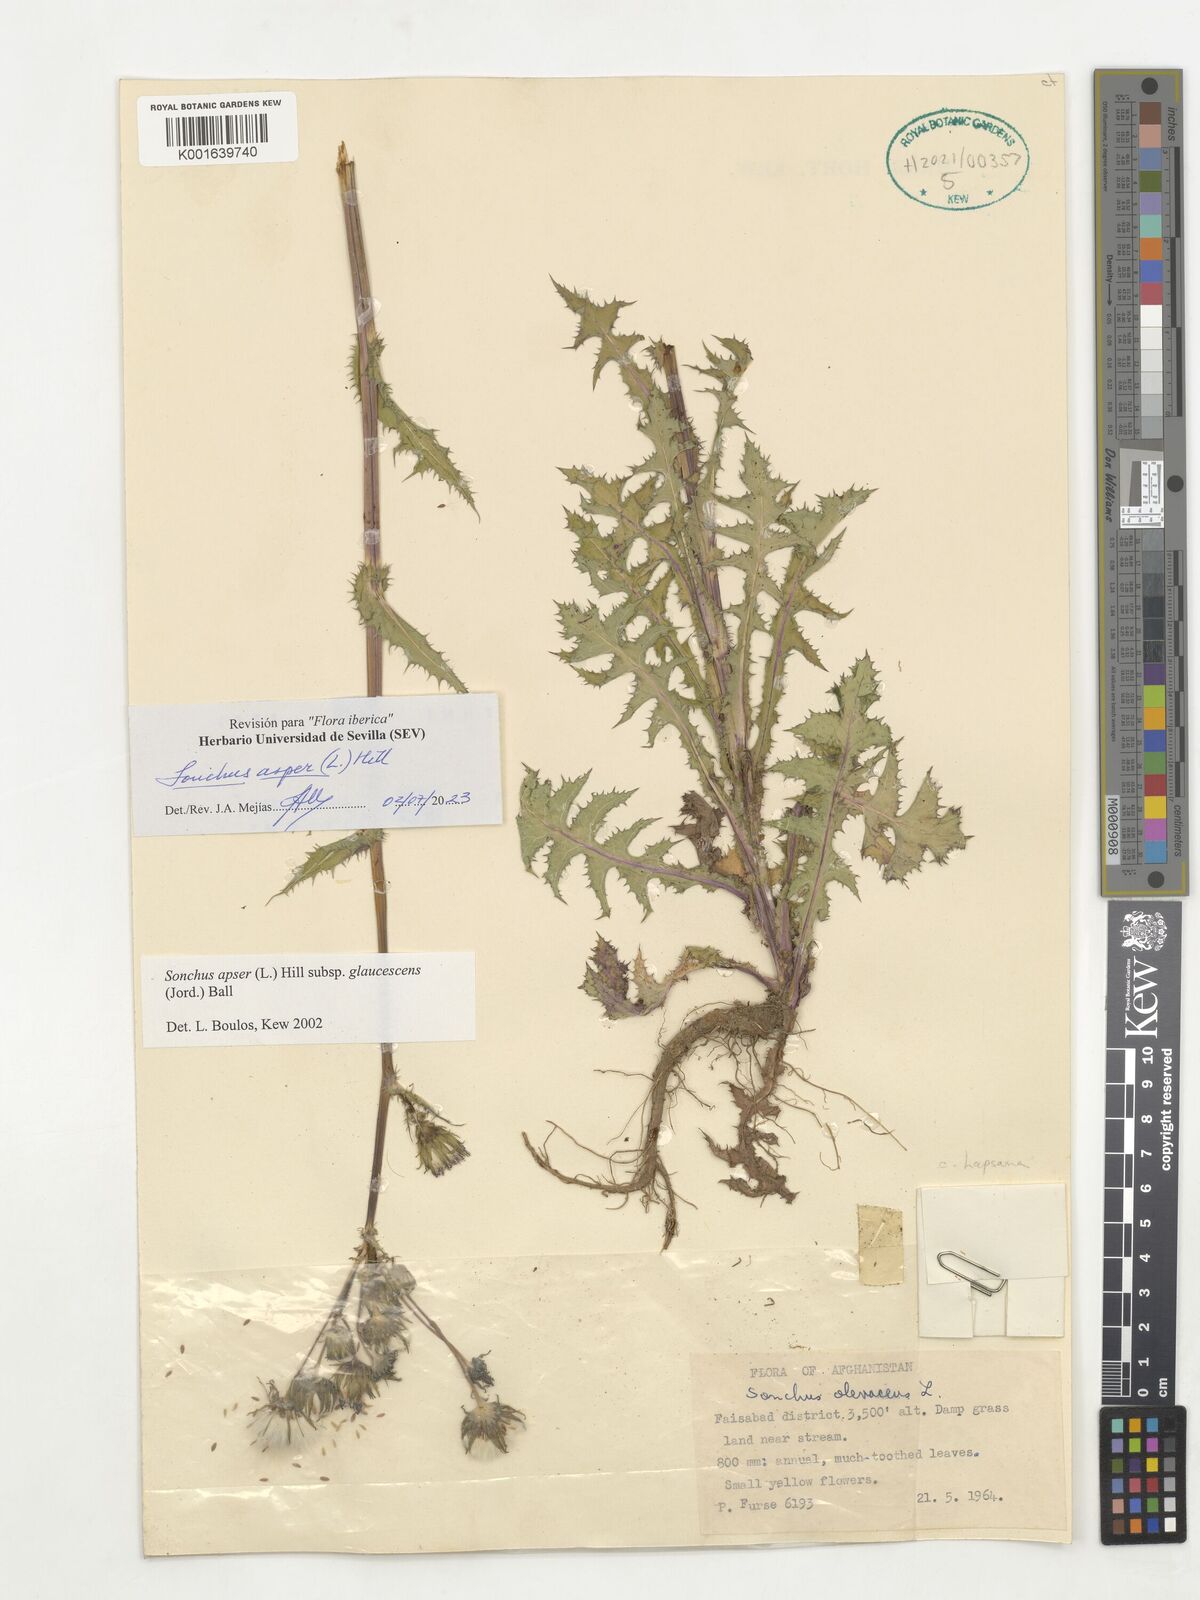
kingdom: Plantae
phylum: Tracheophyta
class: Magnoliopsida
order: Asterales
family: Asteraceae
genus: Sonchus
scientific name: Sonchus asper
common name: Prickly sow-thistle
